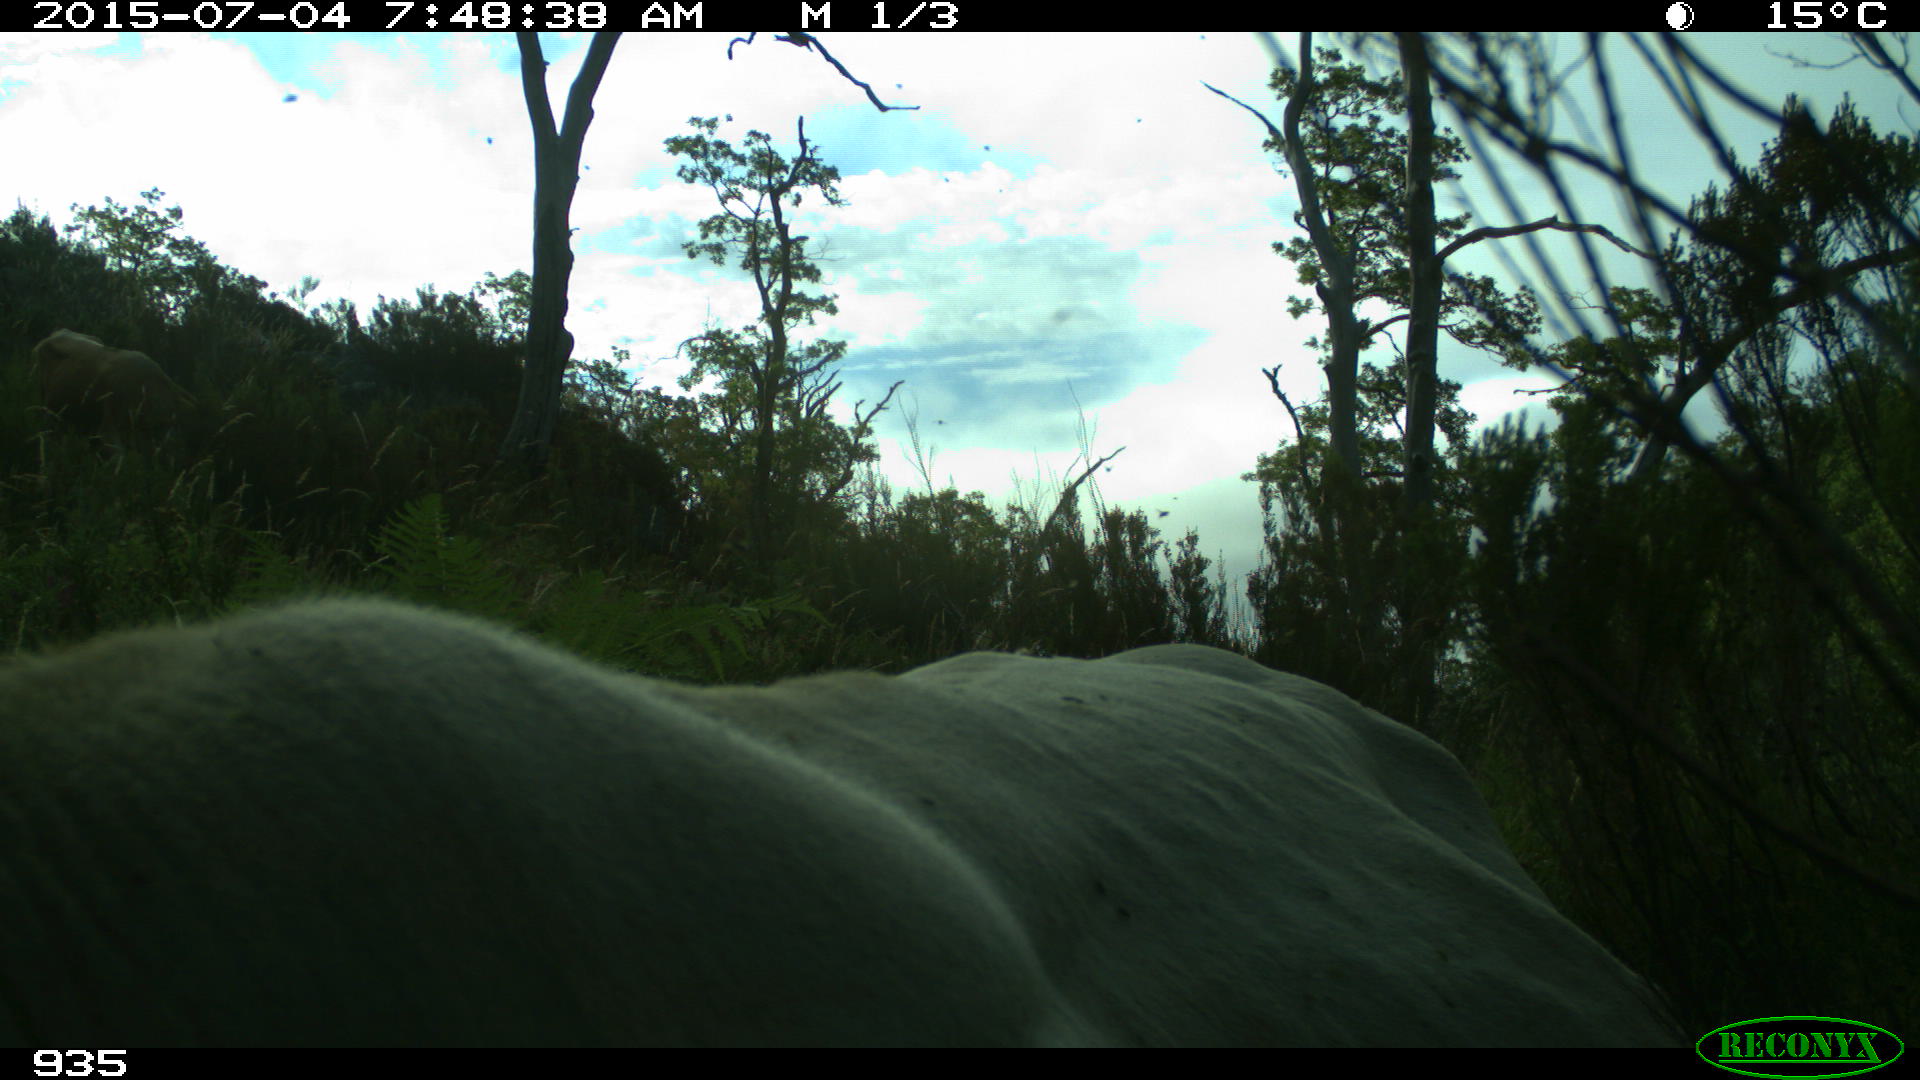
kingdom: Animalia
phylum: Chordata
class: Mammalia
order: Artiodactyla
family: Bovidae
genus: Bos
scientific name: Bos taurus
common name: Domesticated cattle
